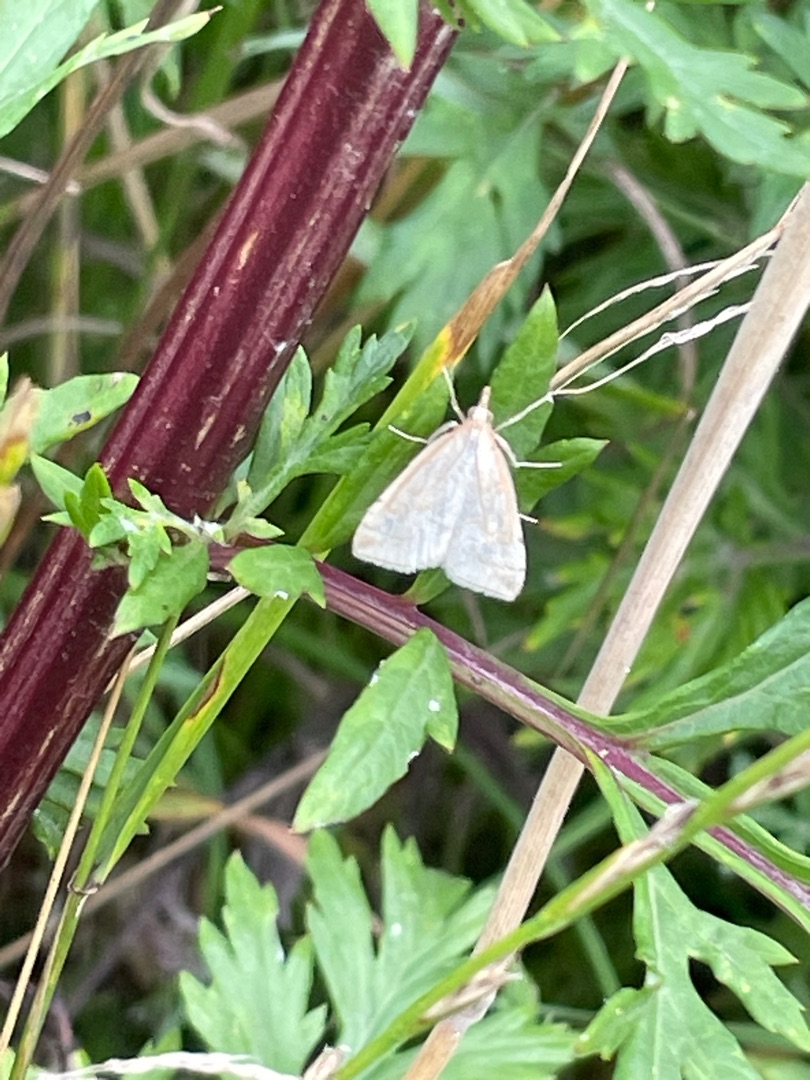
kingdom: Animalia
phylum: Arthropoda
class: Insecta
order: Lepidoptera
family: Crambidae
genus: Udea
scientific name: Udea lutealis
